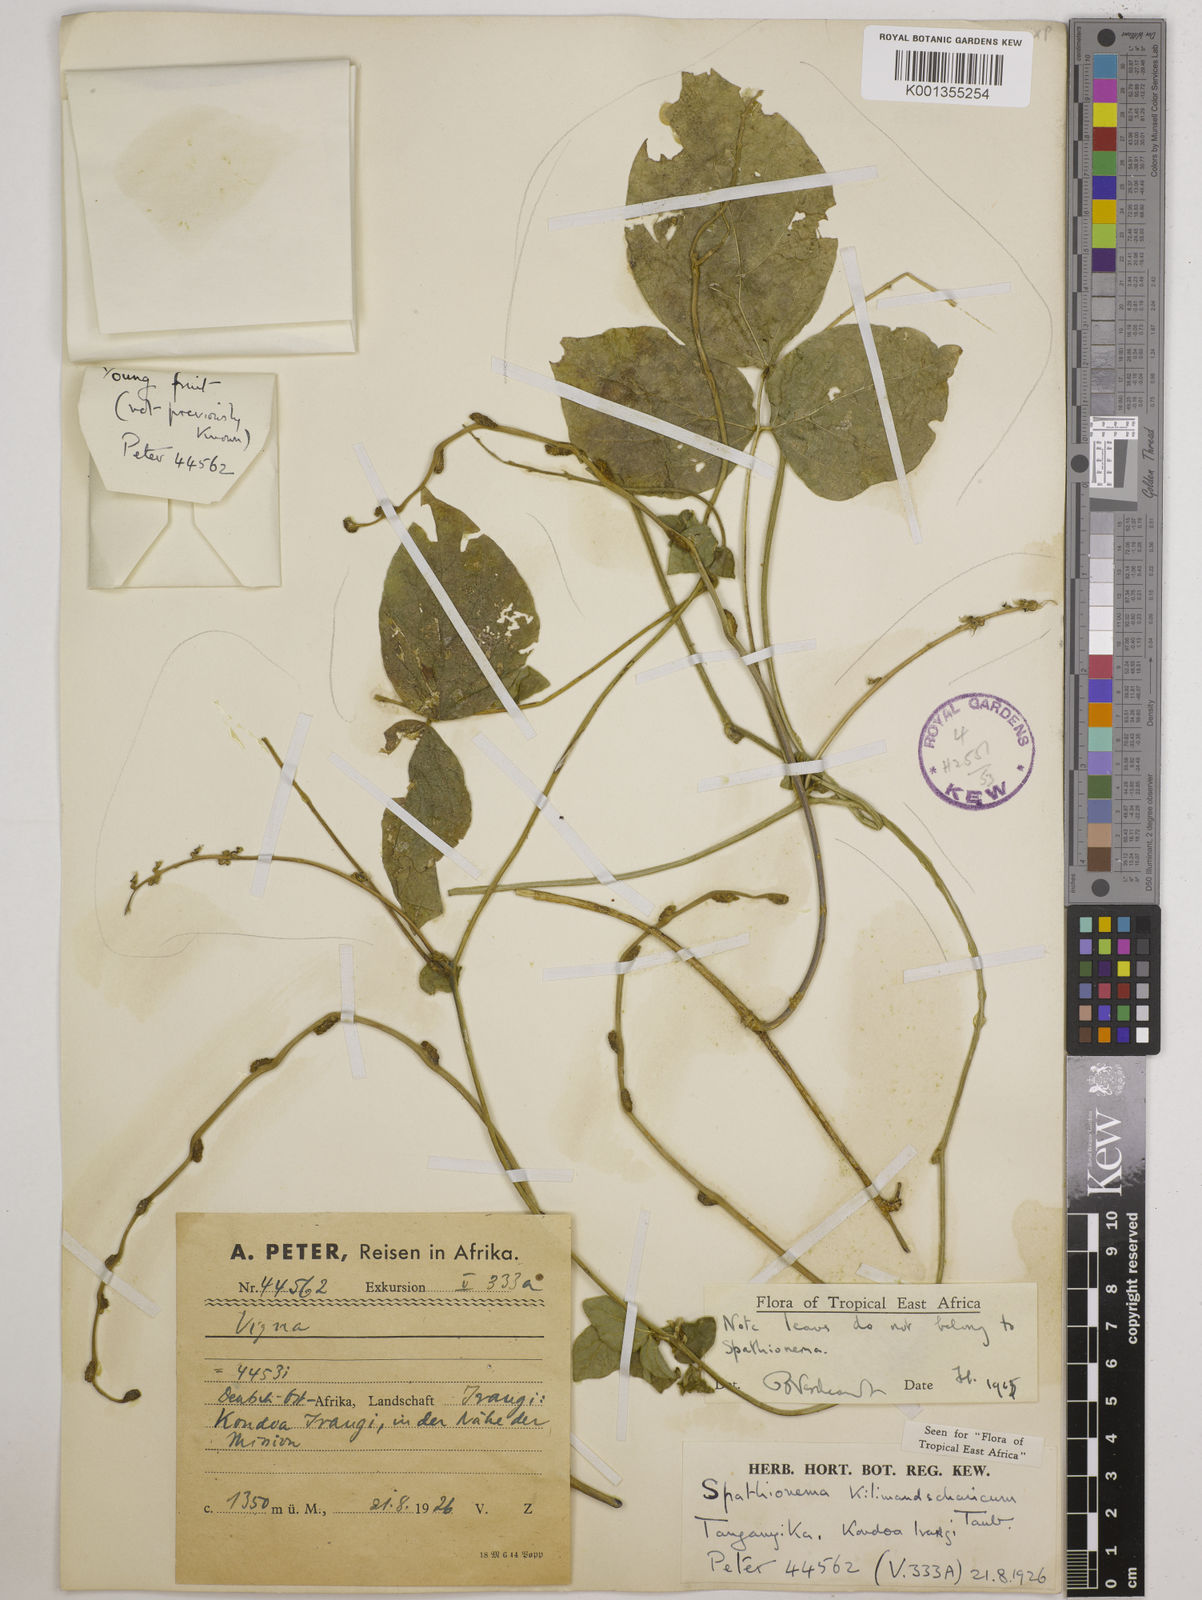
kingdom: Plantae
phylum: Tracheophyta
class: Magnoliopsida
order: Fabales
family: Fabaceae
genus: Spathionema
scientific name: Spathionema kilimandscharicum
